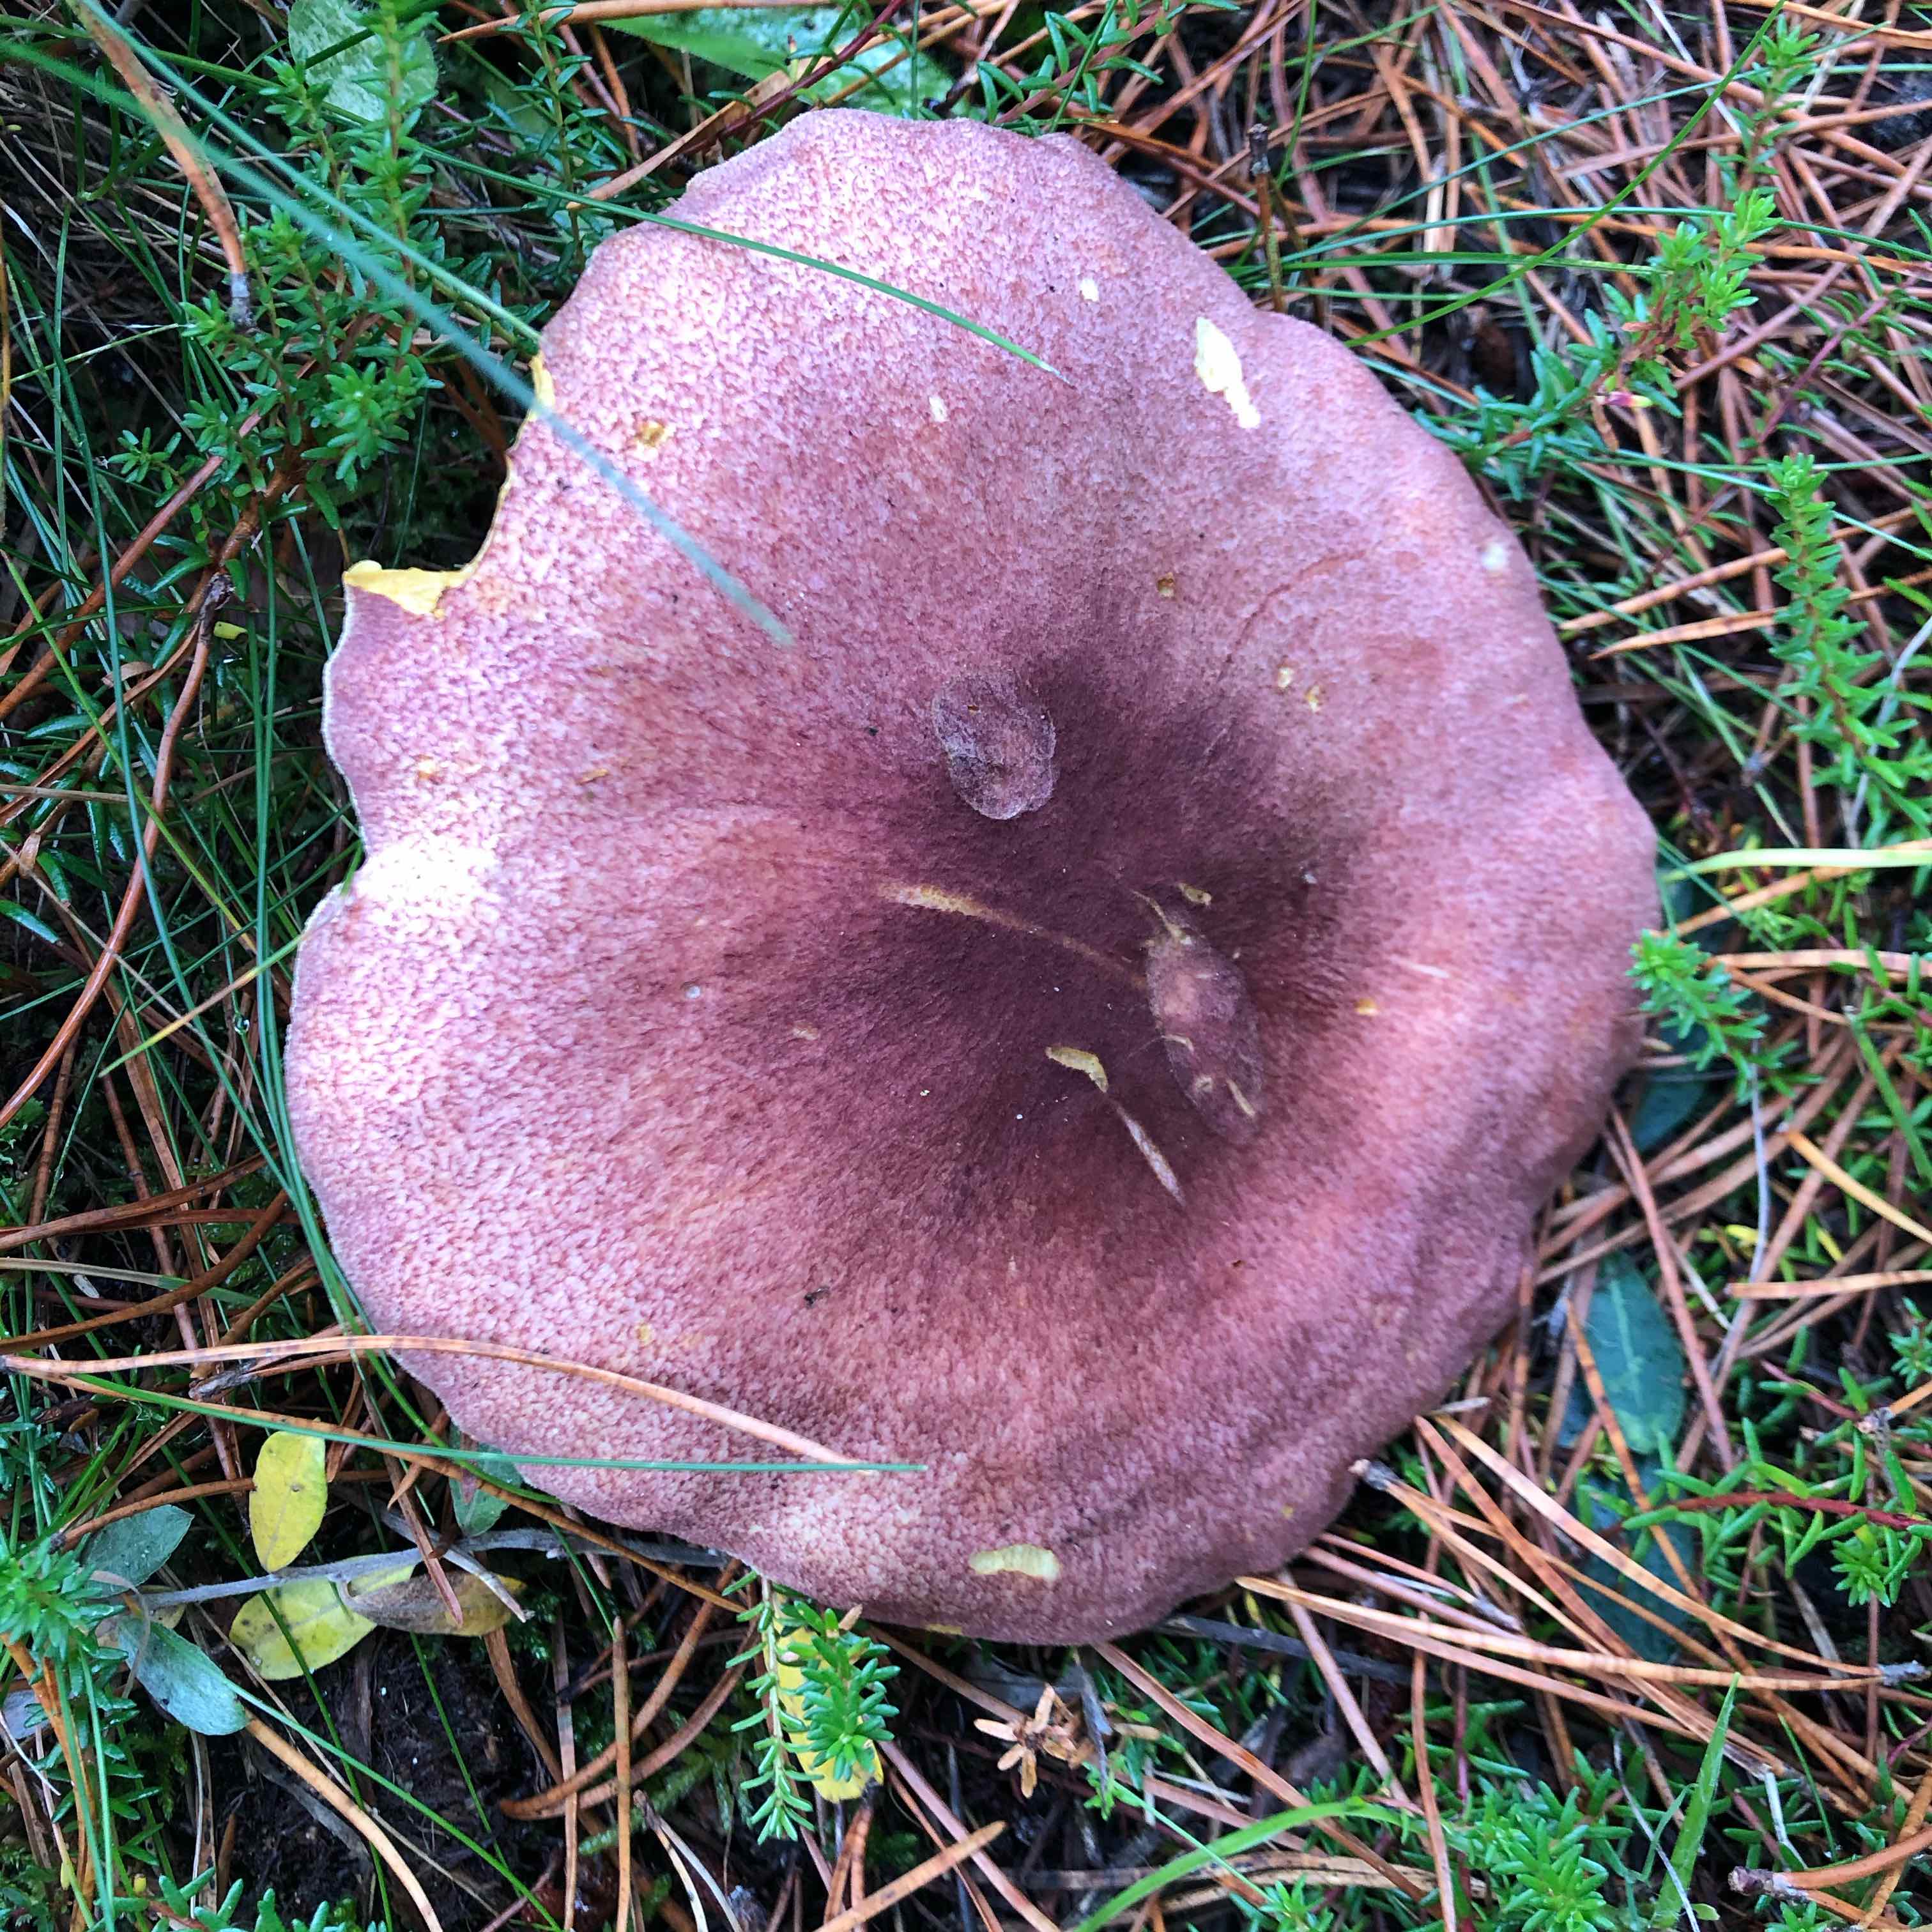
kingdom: Fungi
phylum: Basidiomycota
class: Agaricomycetes
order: Agaricales
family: Tricholomataceae
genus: Tricholomopsis
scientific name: Tricholomopsis rutilans
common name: purpur-væbnerhat
